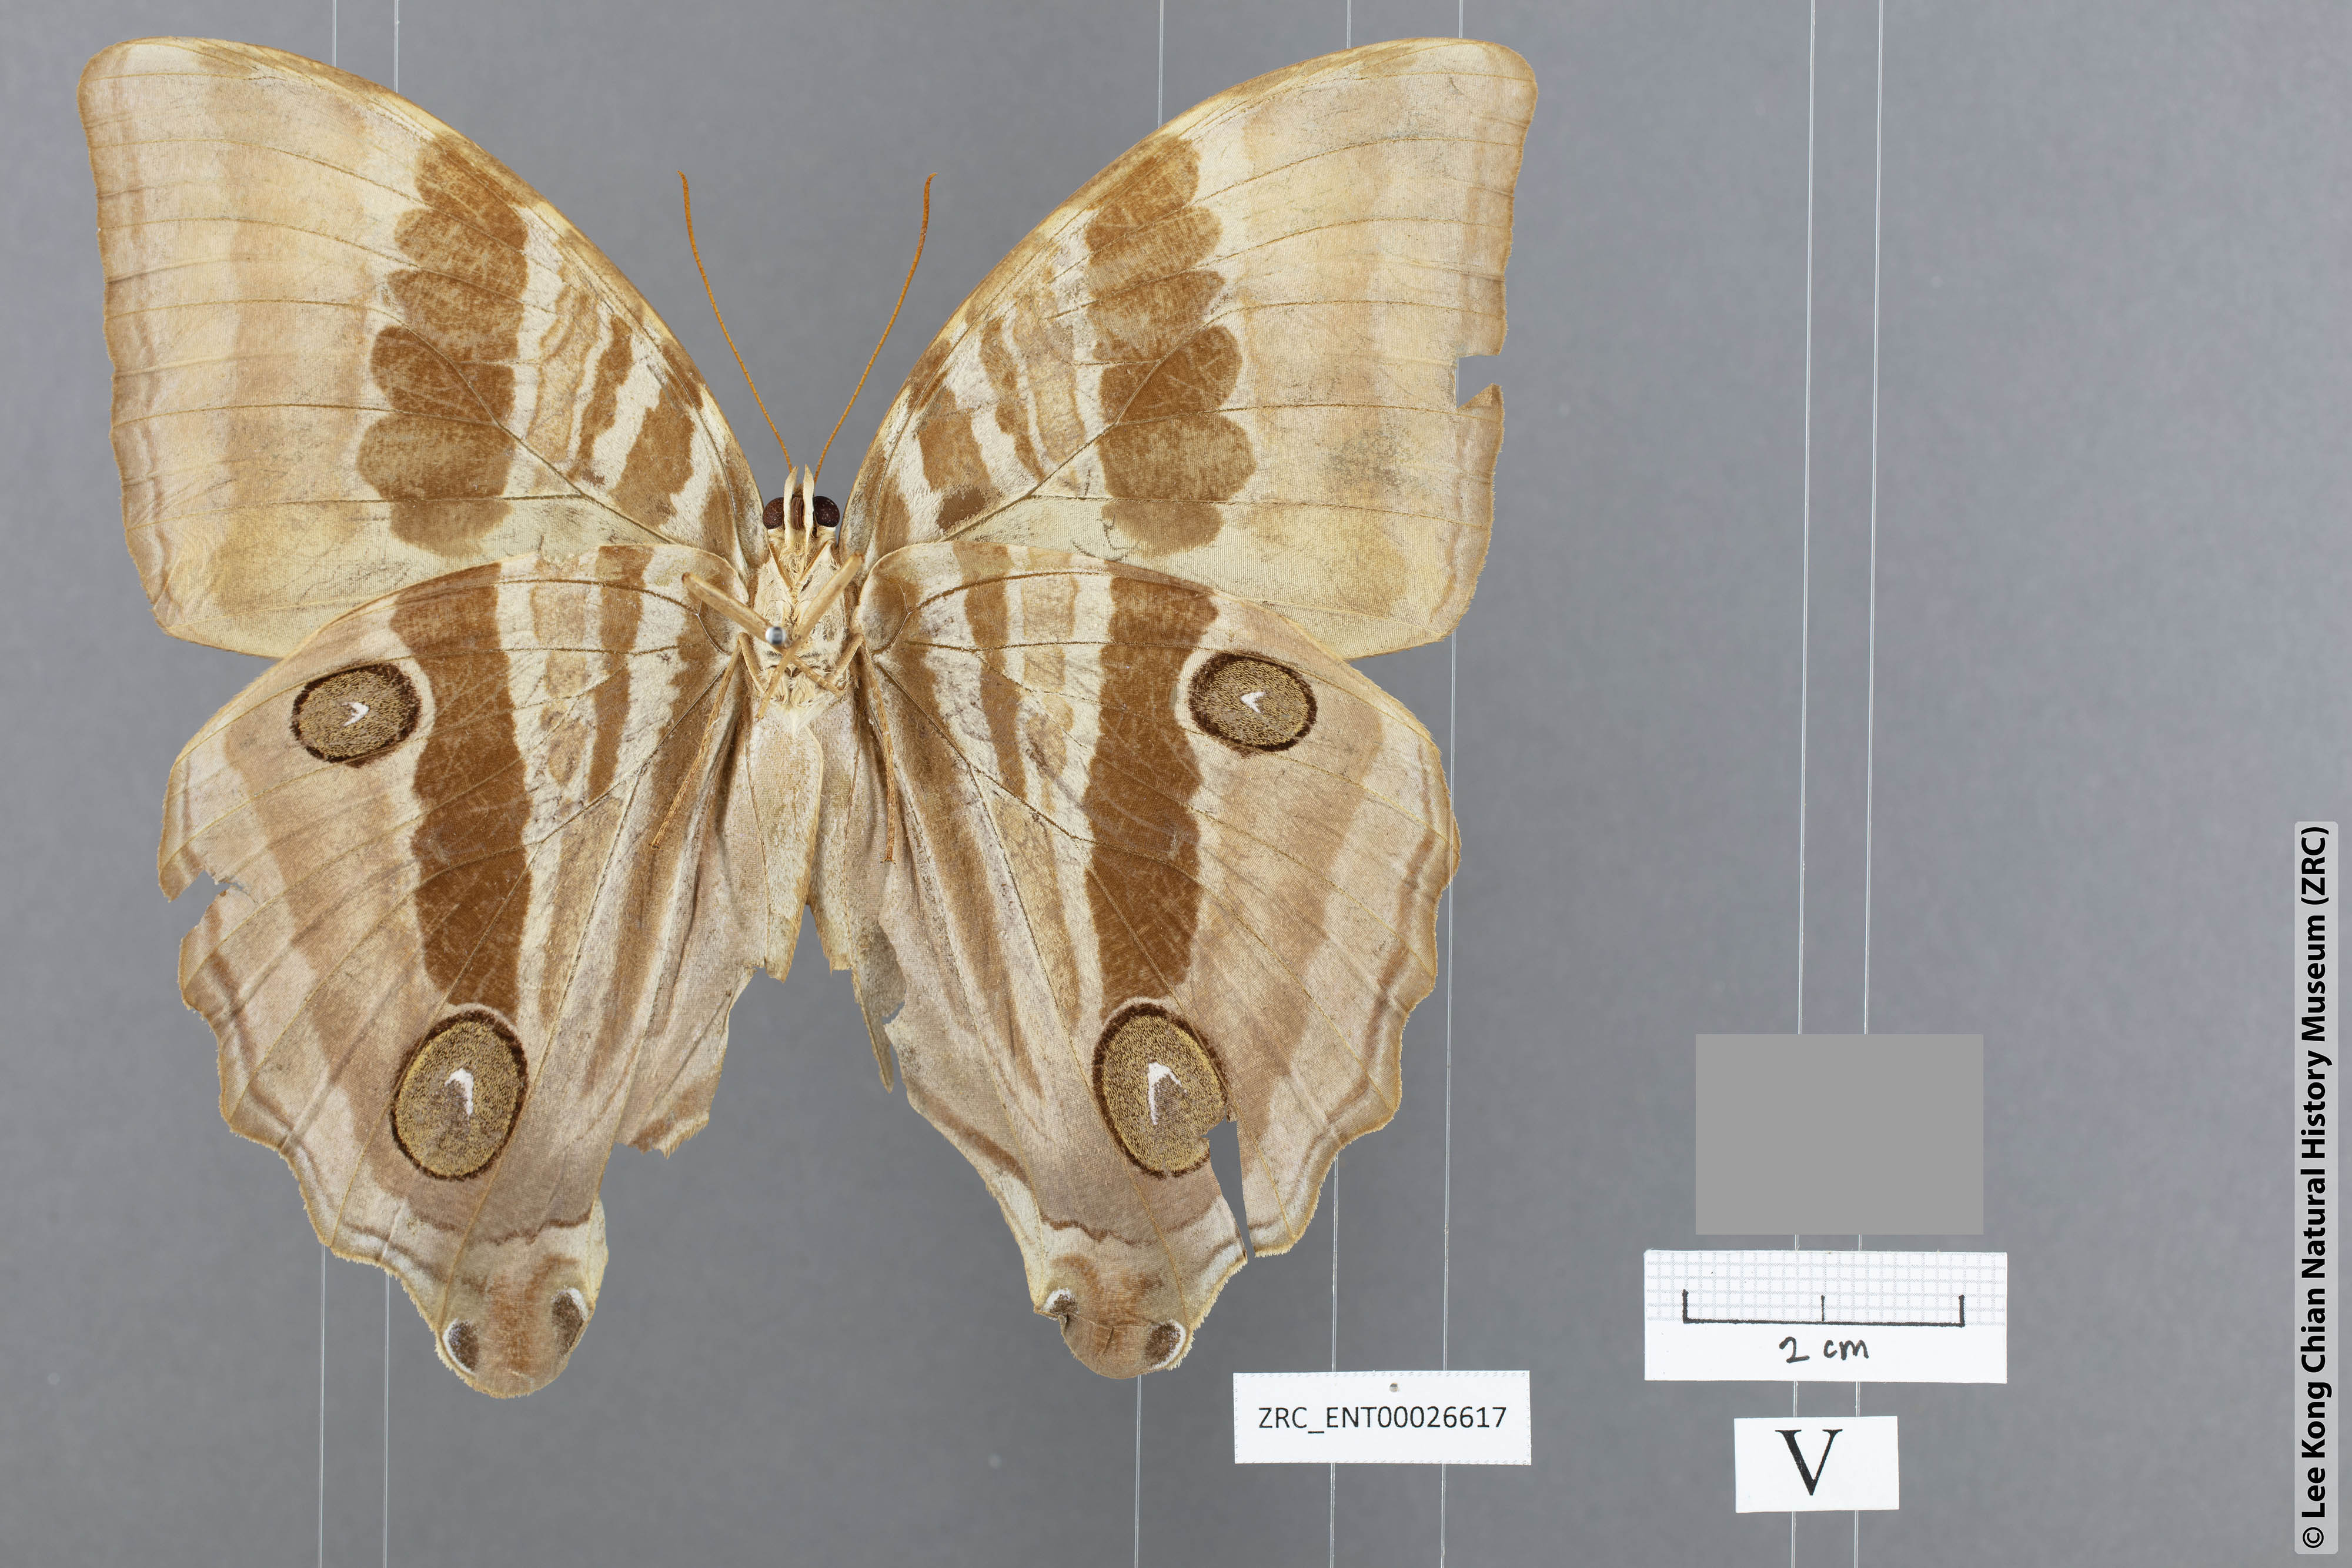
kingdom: Animalia
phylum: Arthropoda
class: Insecta
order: Lepidoptera
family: Nymphalidae
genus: Amathusia
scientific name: Amathusia
